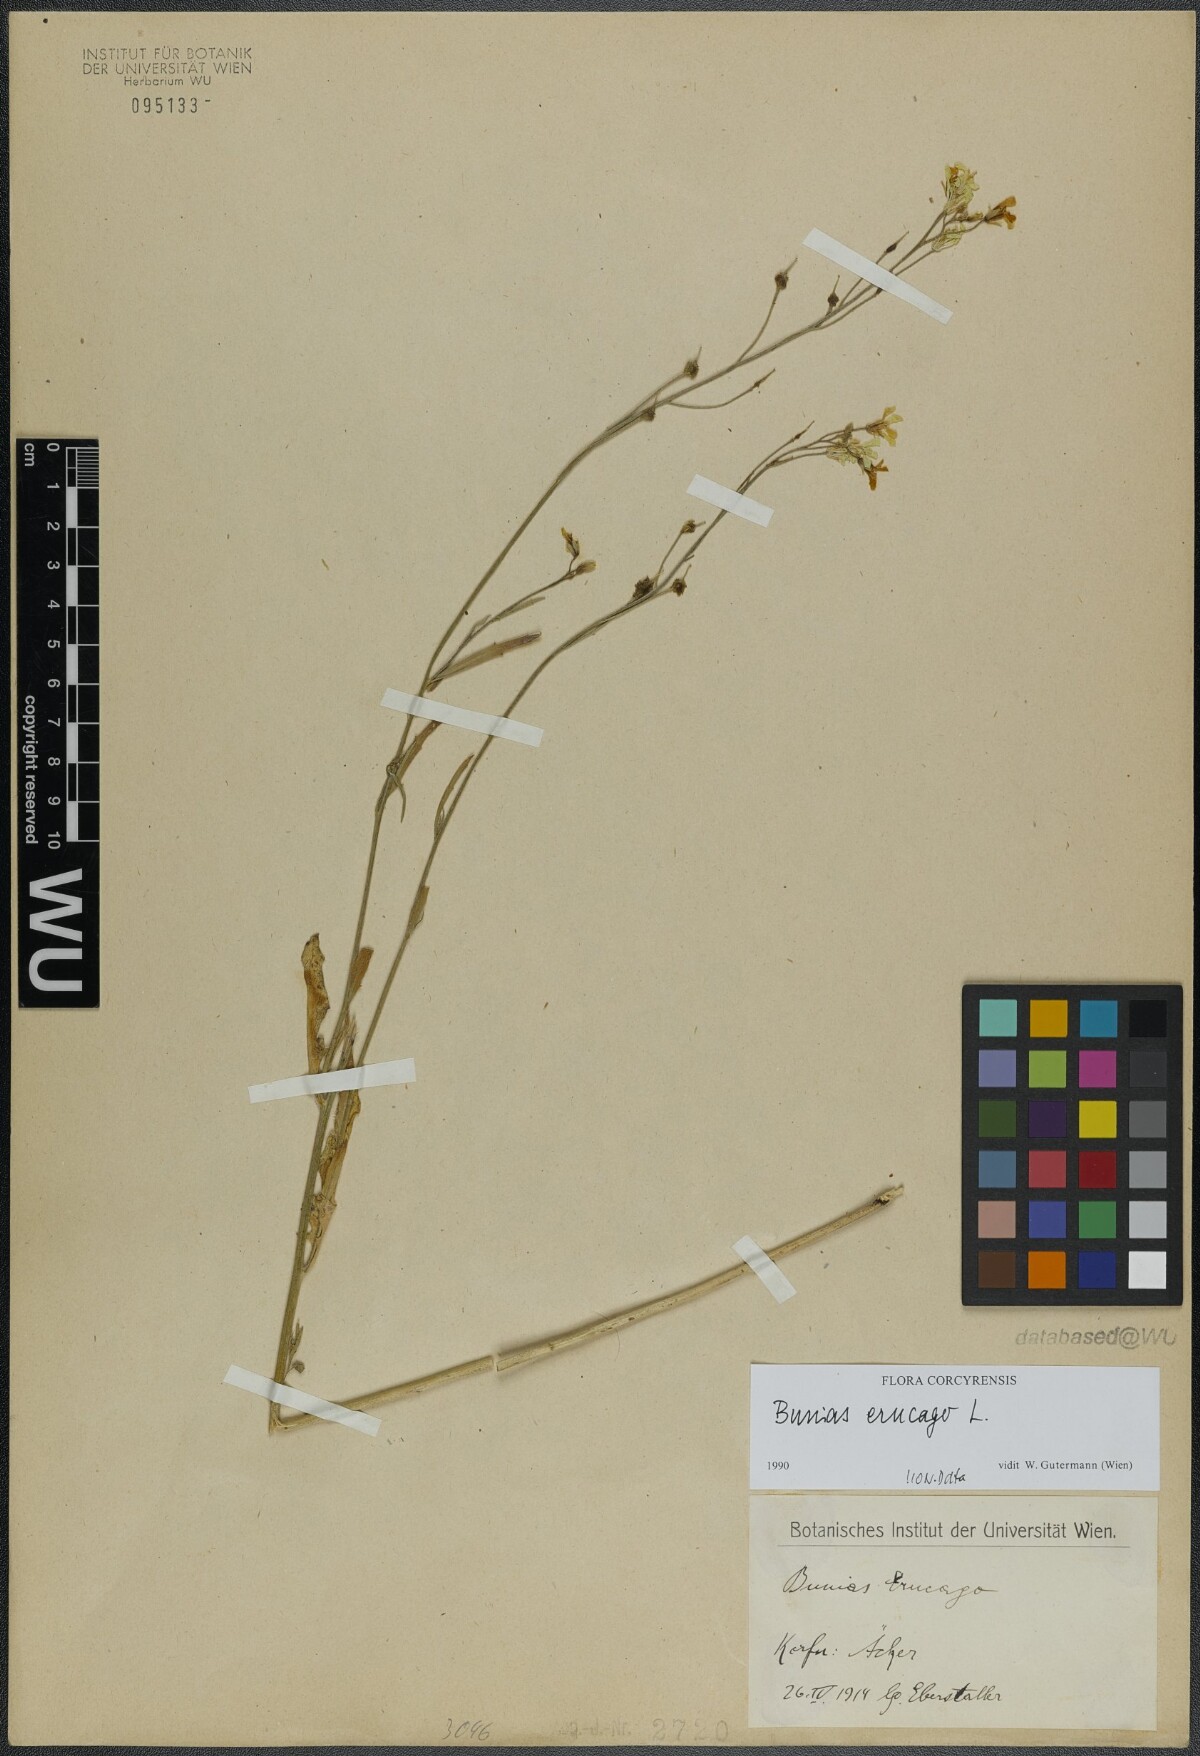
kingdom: Plantae
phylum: Tracheophyta
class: Magnoliopsida
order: Brassicales
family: Brassicaceae
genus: Bunias
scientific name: Bunias erucago
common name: Southern warty-cabbage
